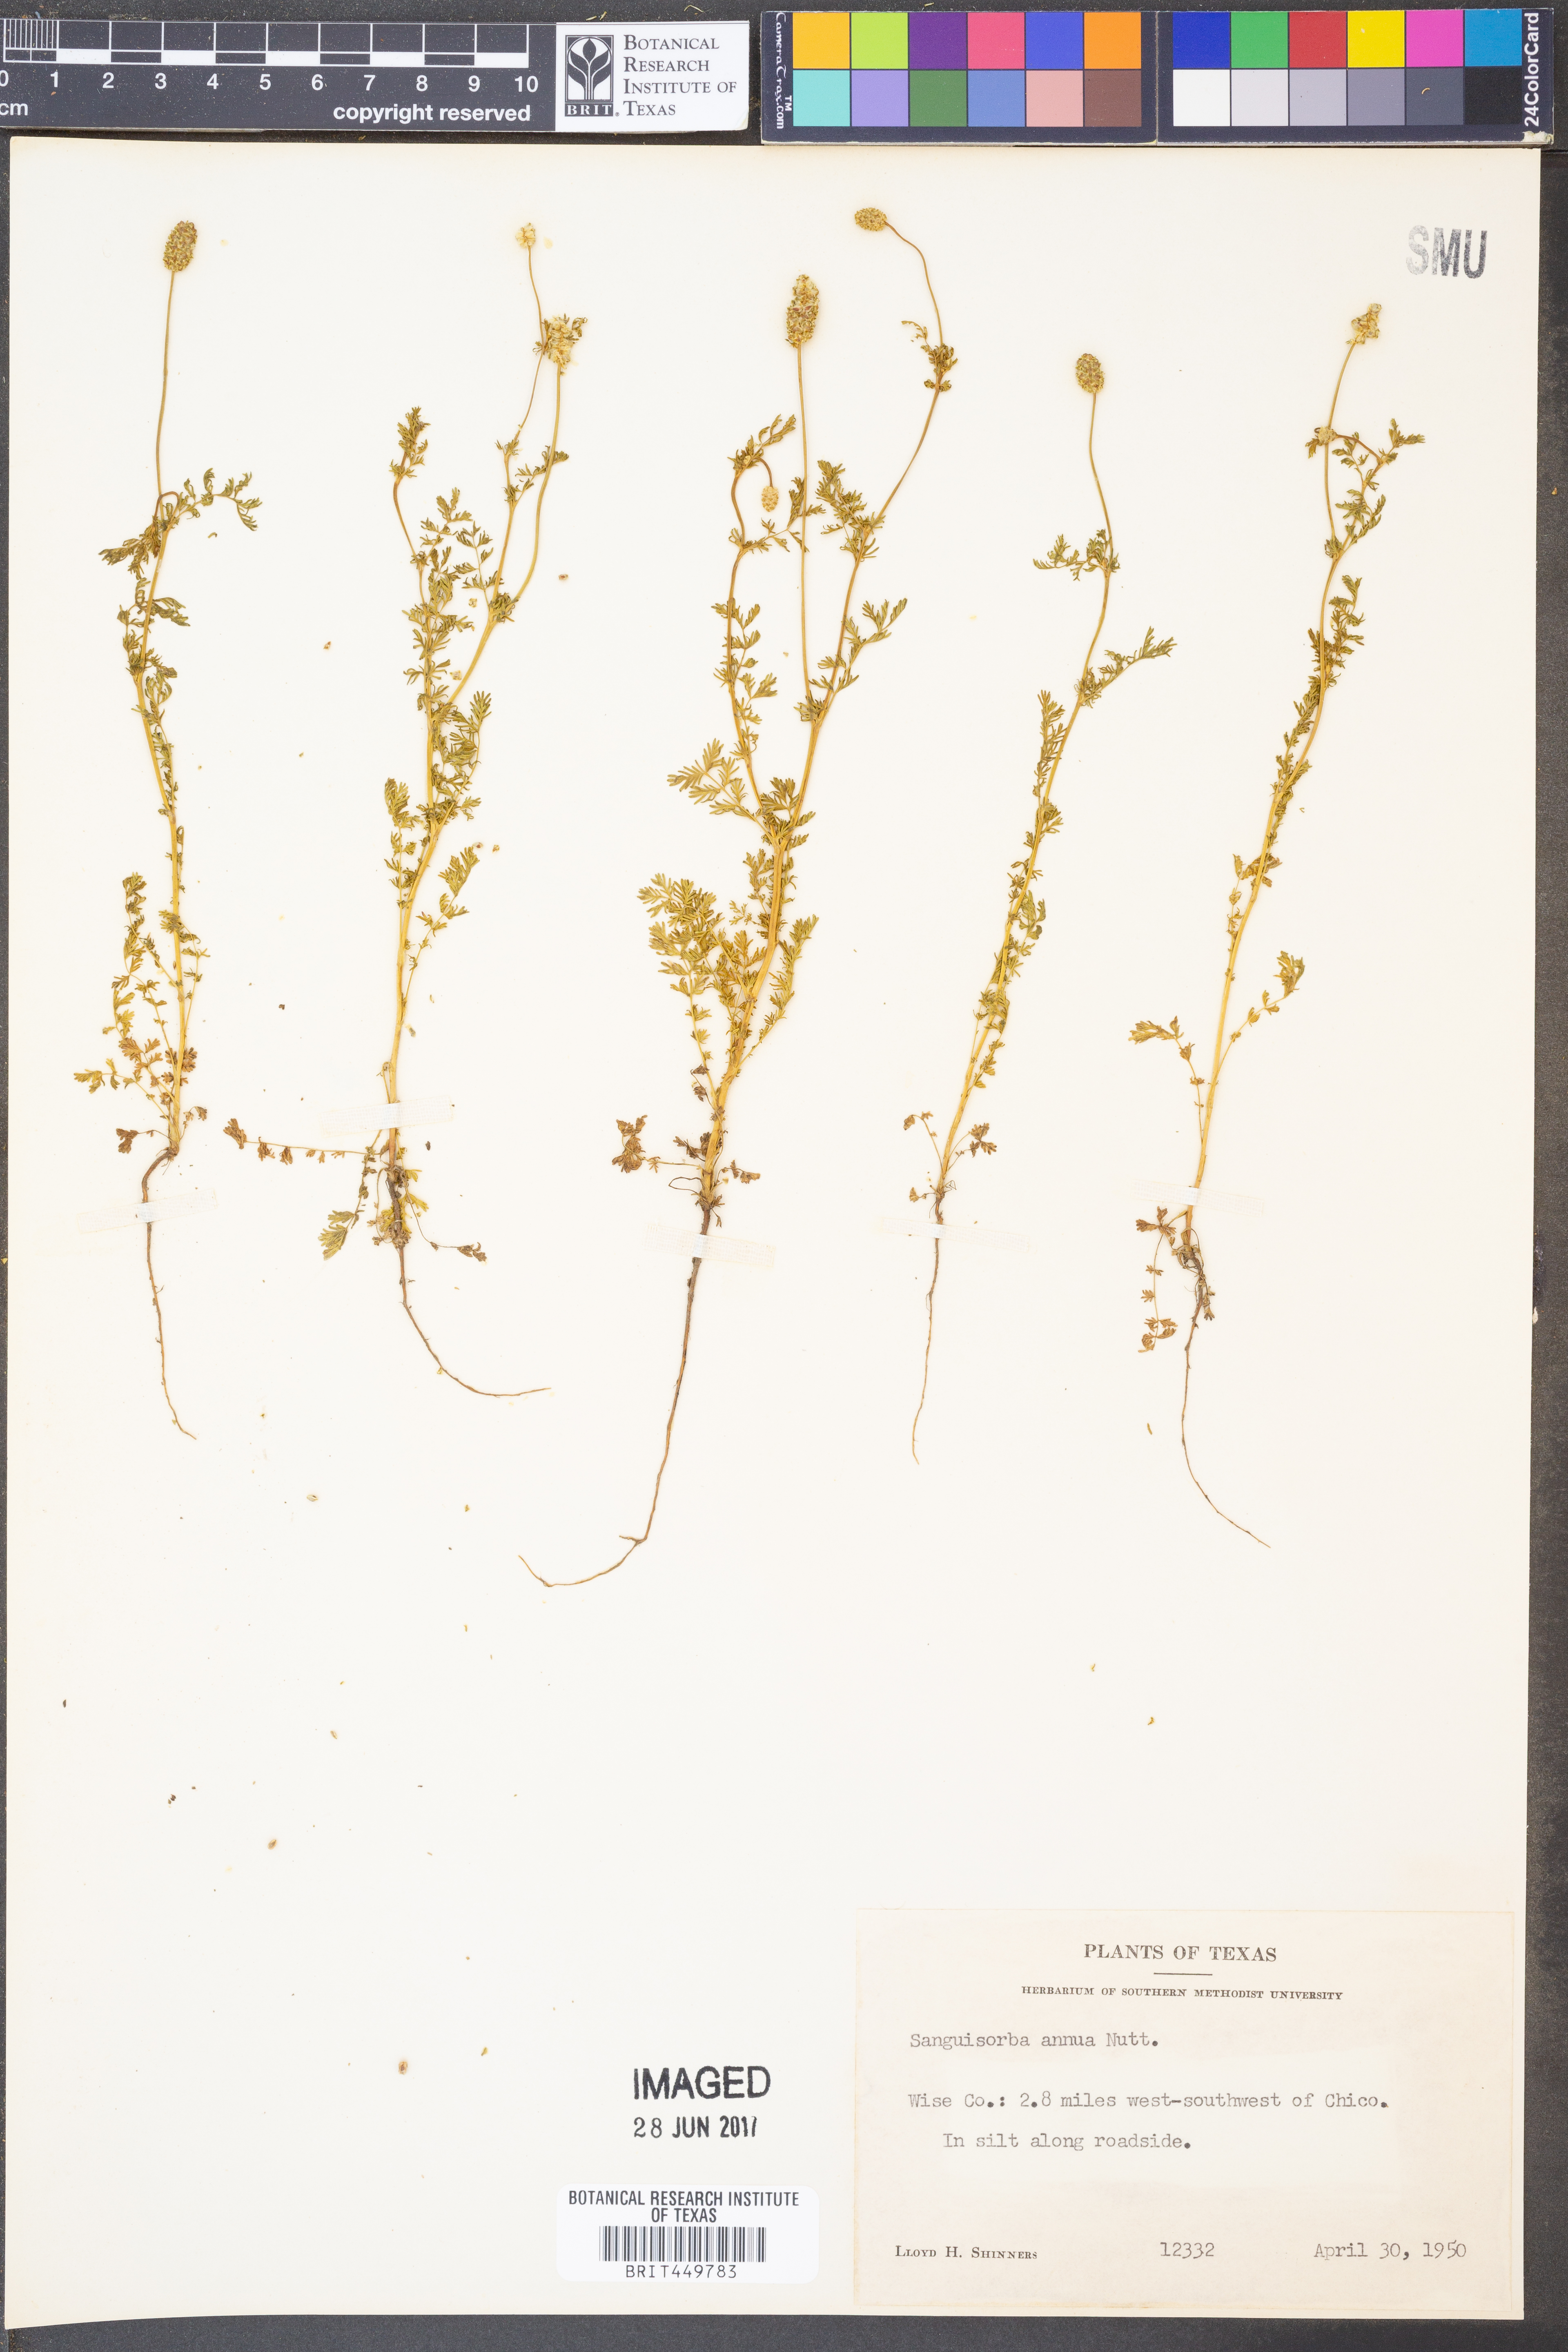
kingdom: Plantae
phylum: Tracheophyta
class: Magnoliopsida
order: Rosales
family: Rosaceae
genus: Poteridium
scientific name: Poteridium annuum
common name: Annual burnet
